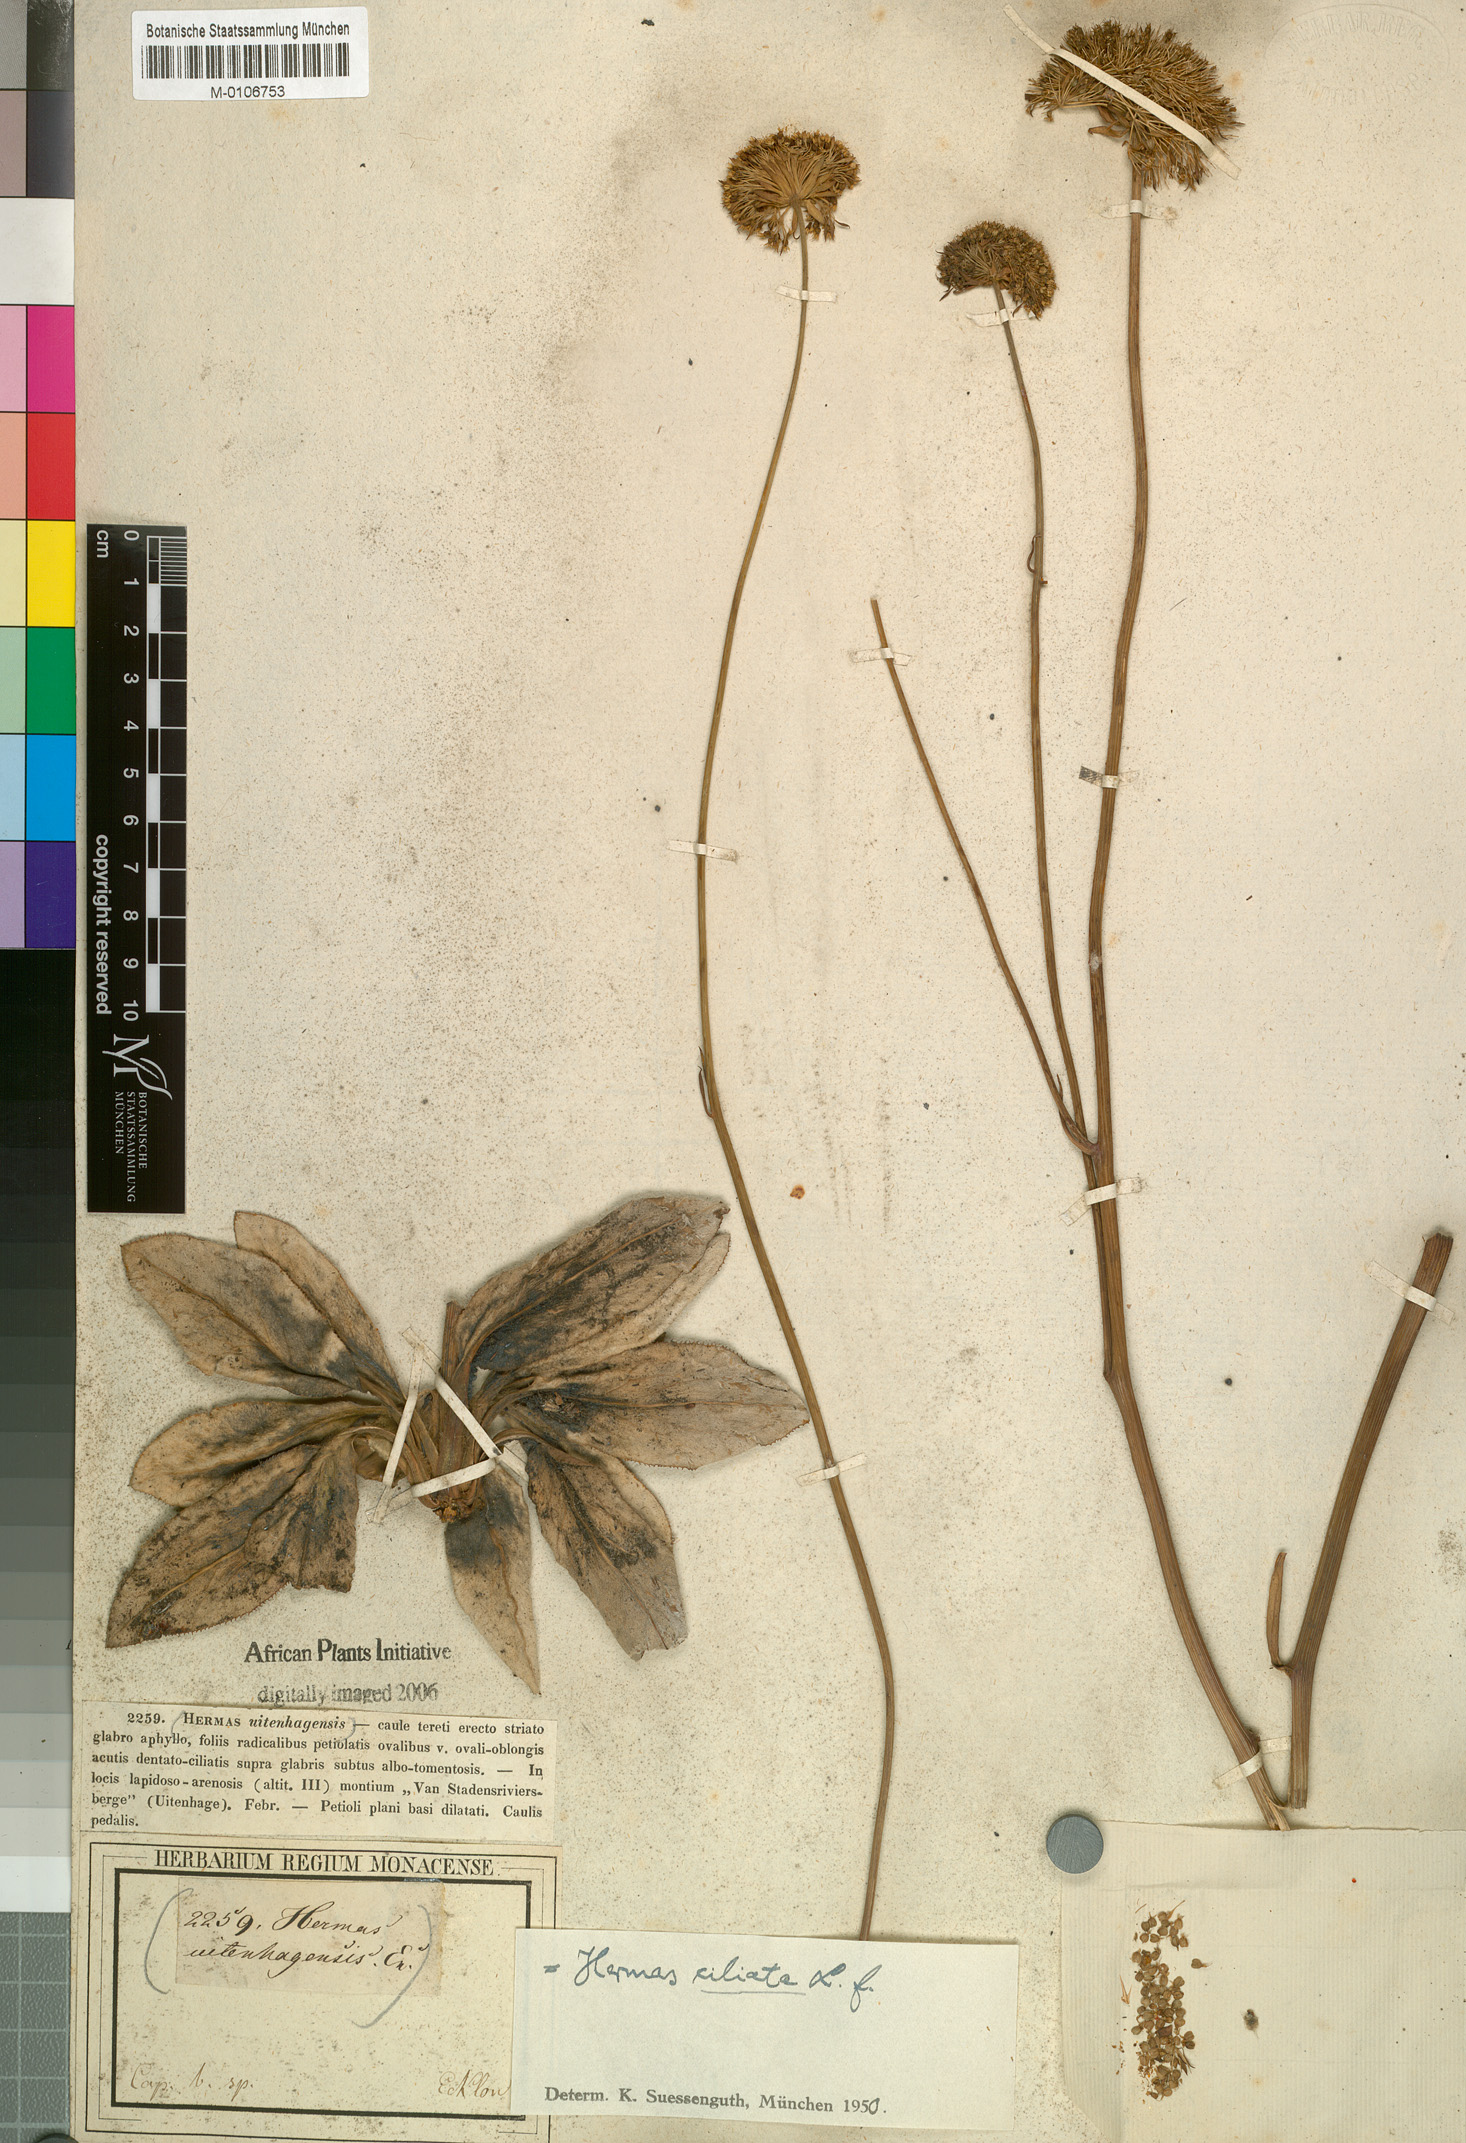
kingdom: Plantae
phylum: Tracheophyta
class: Magnoliopsida
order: Apiales
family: Apiaceae
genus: Hermas
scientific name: Hermas ciliata
